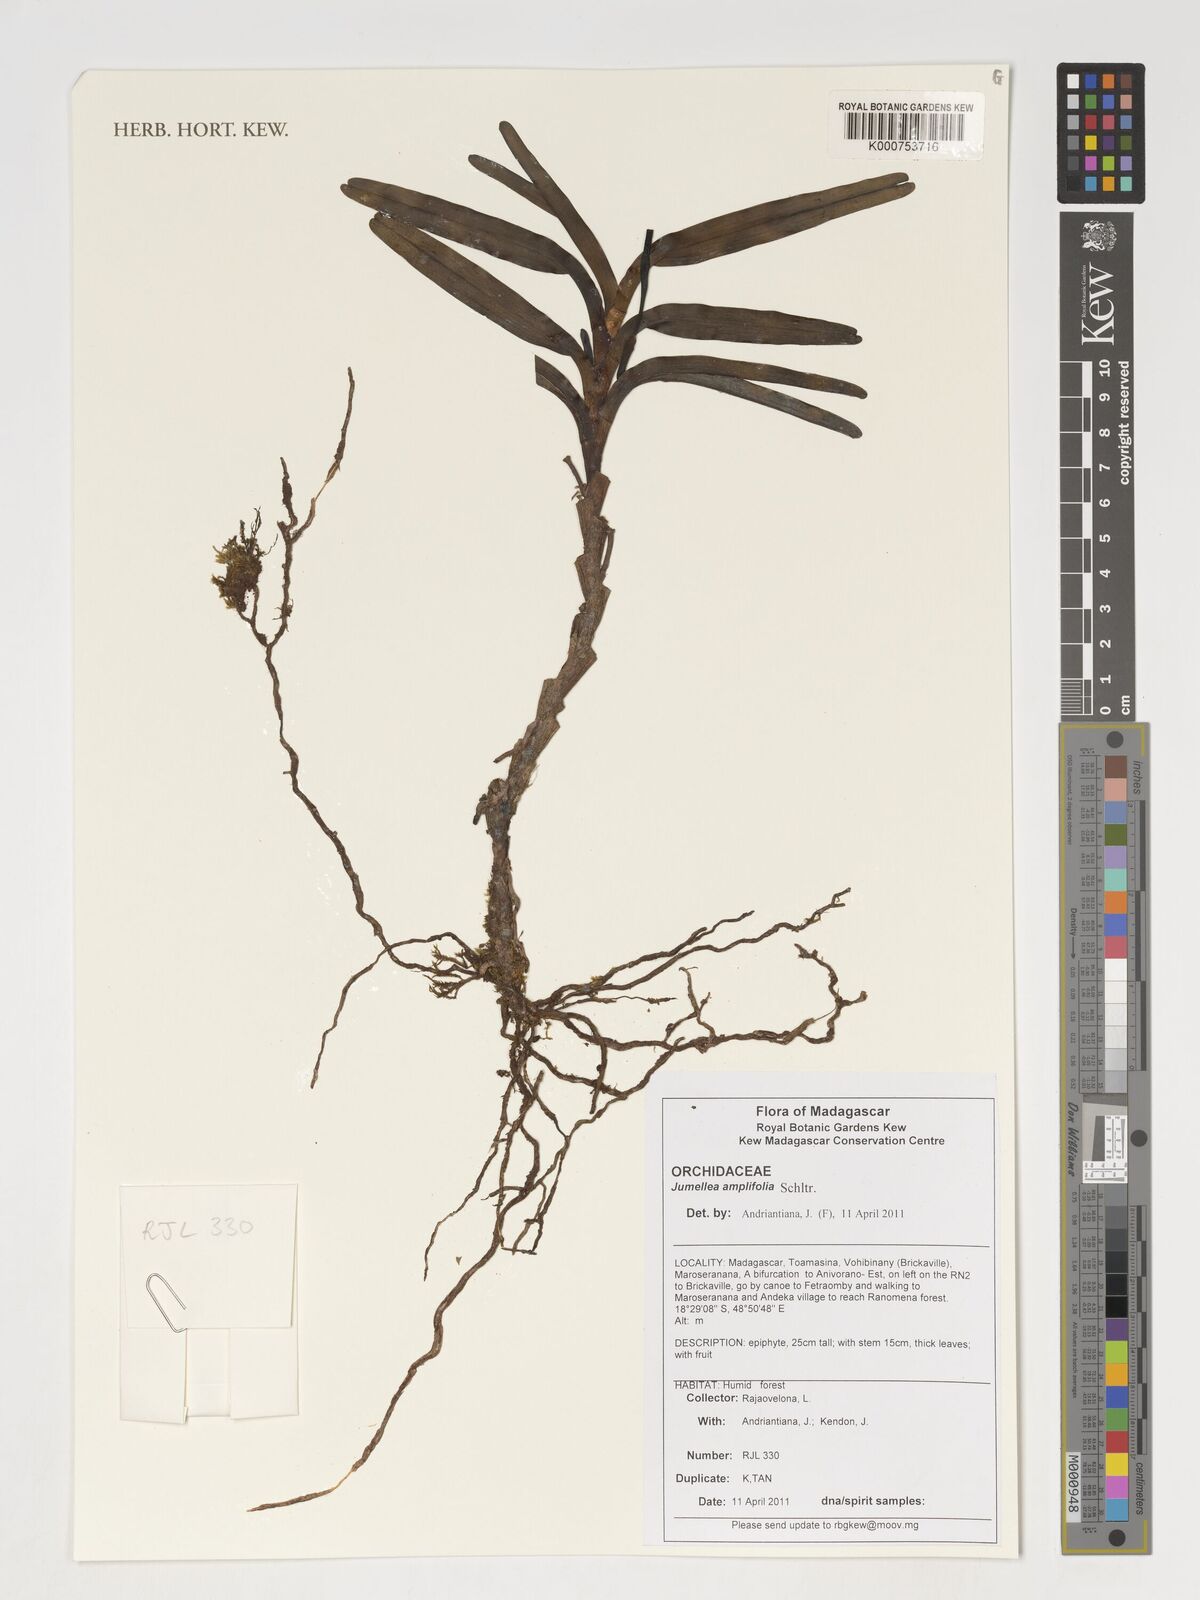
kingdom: Plantae
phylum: Tracheophyta
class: Liliopsida
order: Asparagales
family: Orchidaceae
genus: Jumellea
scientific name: Jumellea amplifolia
